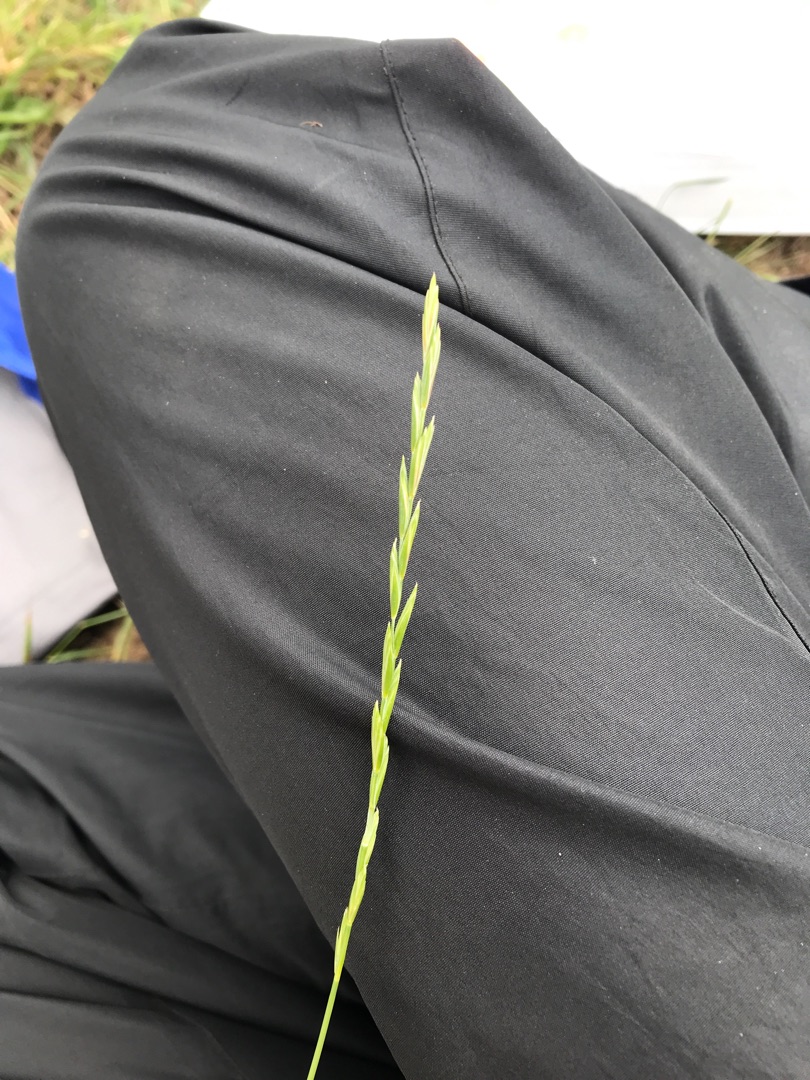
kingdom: Plantae
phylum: Tracheophyta
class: Liliopsida
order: Poales
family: Poaceae
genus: Elymus
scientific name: Elymus repens
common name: Almindelig kvik
